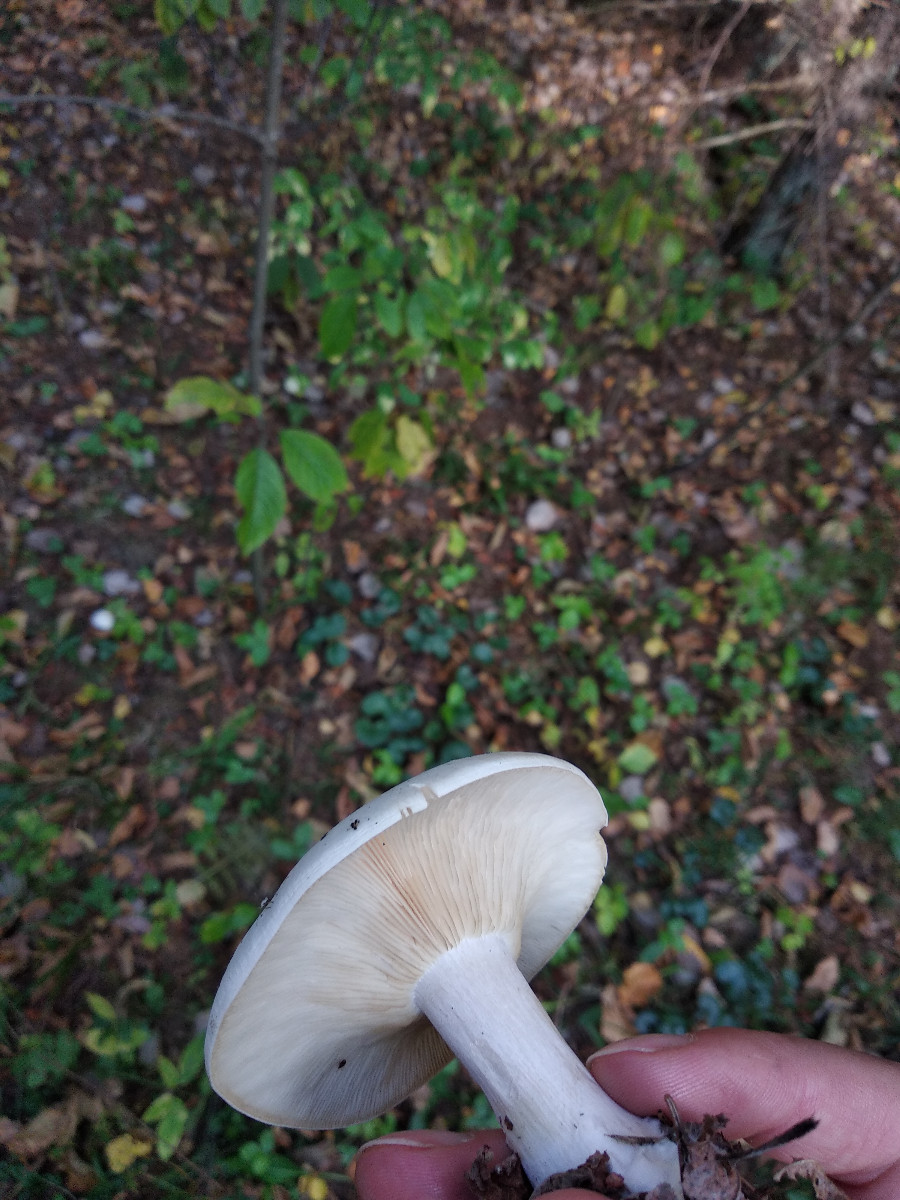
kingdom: Fungi
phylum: Basidiomycota
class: Agaricomycetes
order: Agaricales
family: Tricholomataceae
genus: Clitocybe
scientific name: Clitocybe nebularis
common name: tåge-tragthat
